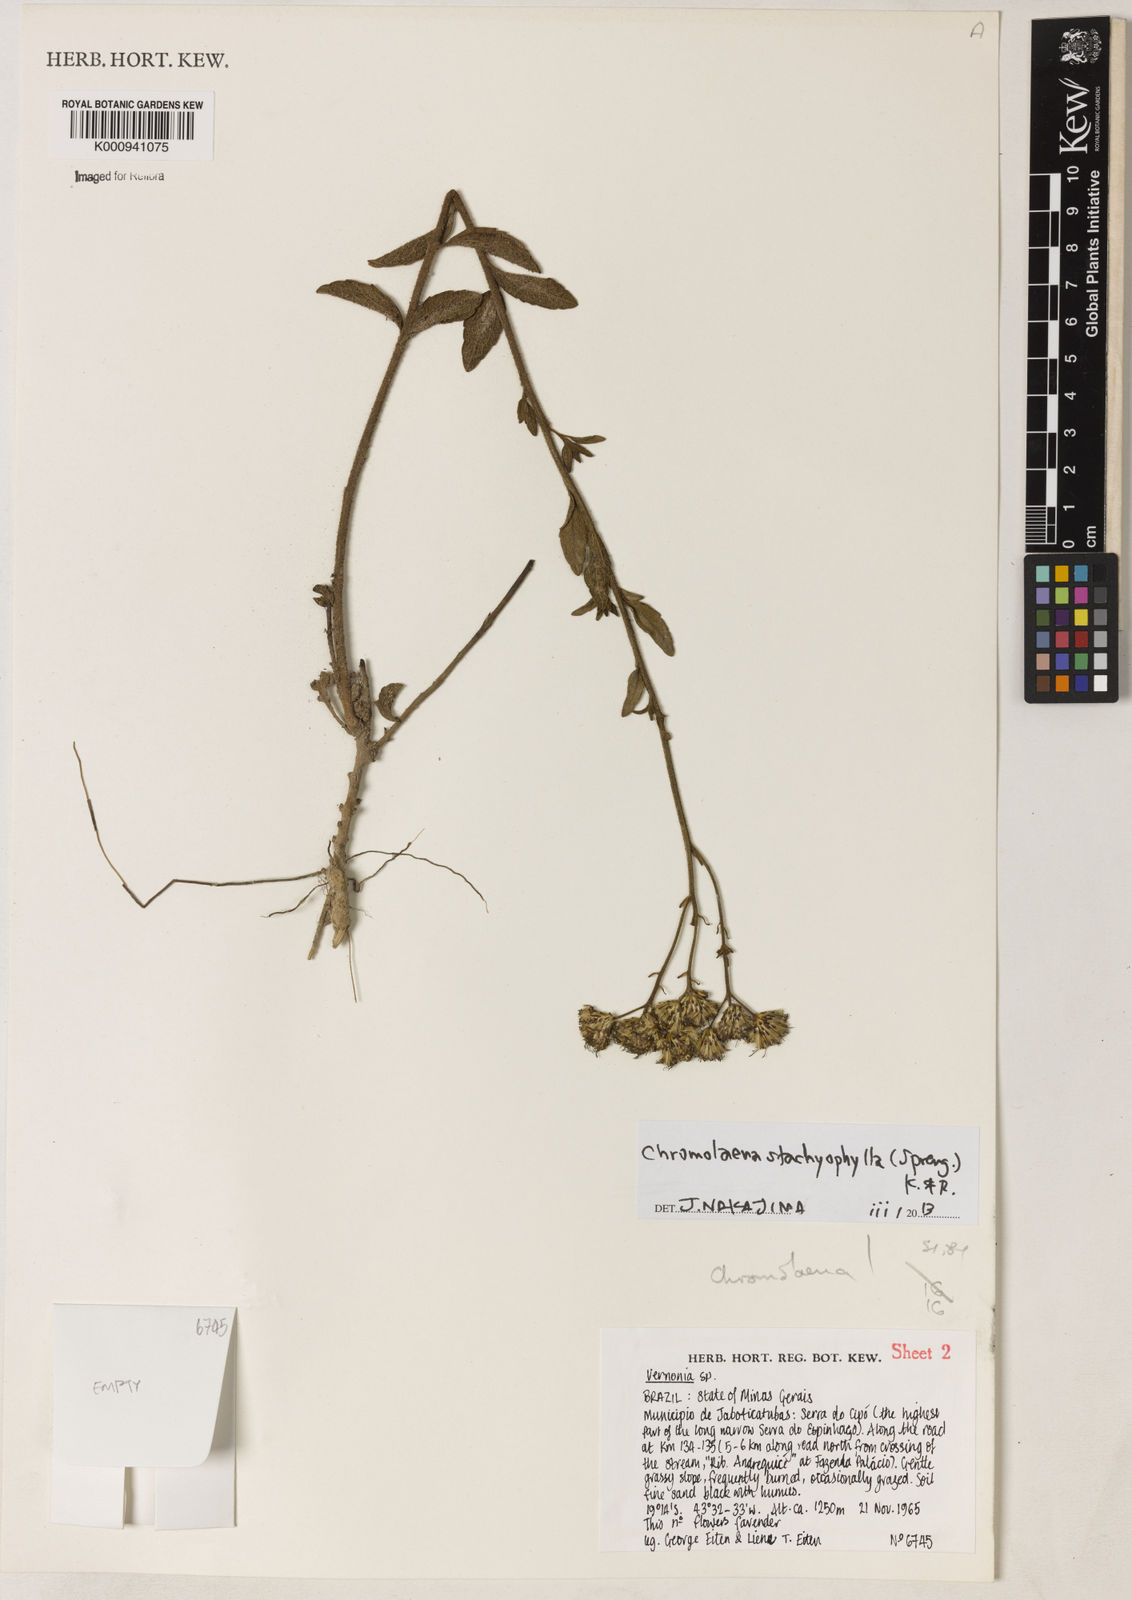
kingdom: Plantae
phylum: Tracheophyta
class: Magnoliopsida
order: Asterales
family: Asteraceae
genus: Chromolaena
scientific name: Chromolaena stachyophylla
